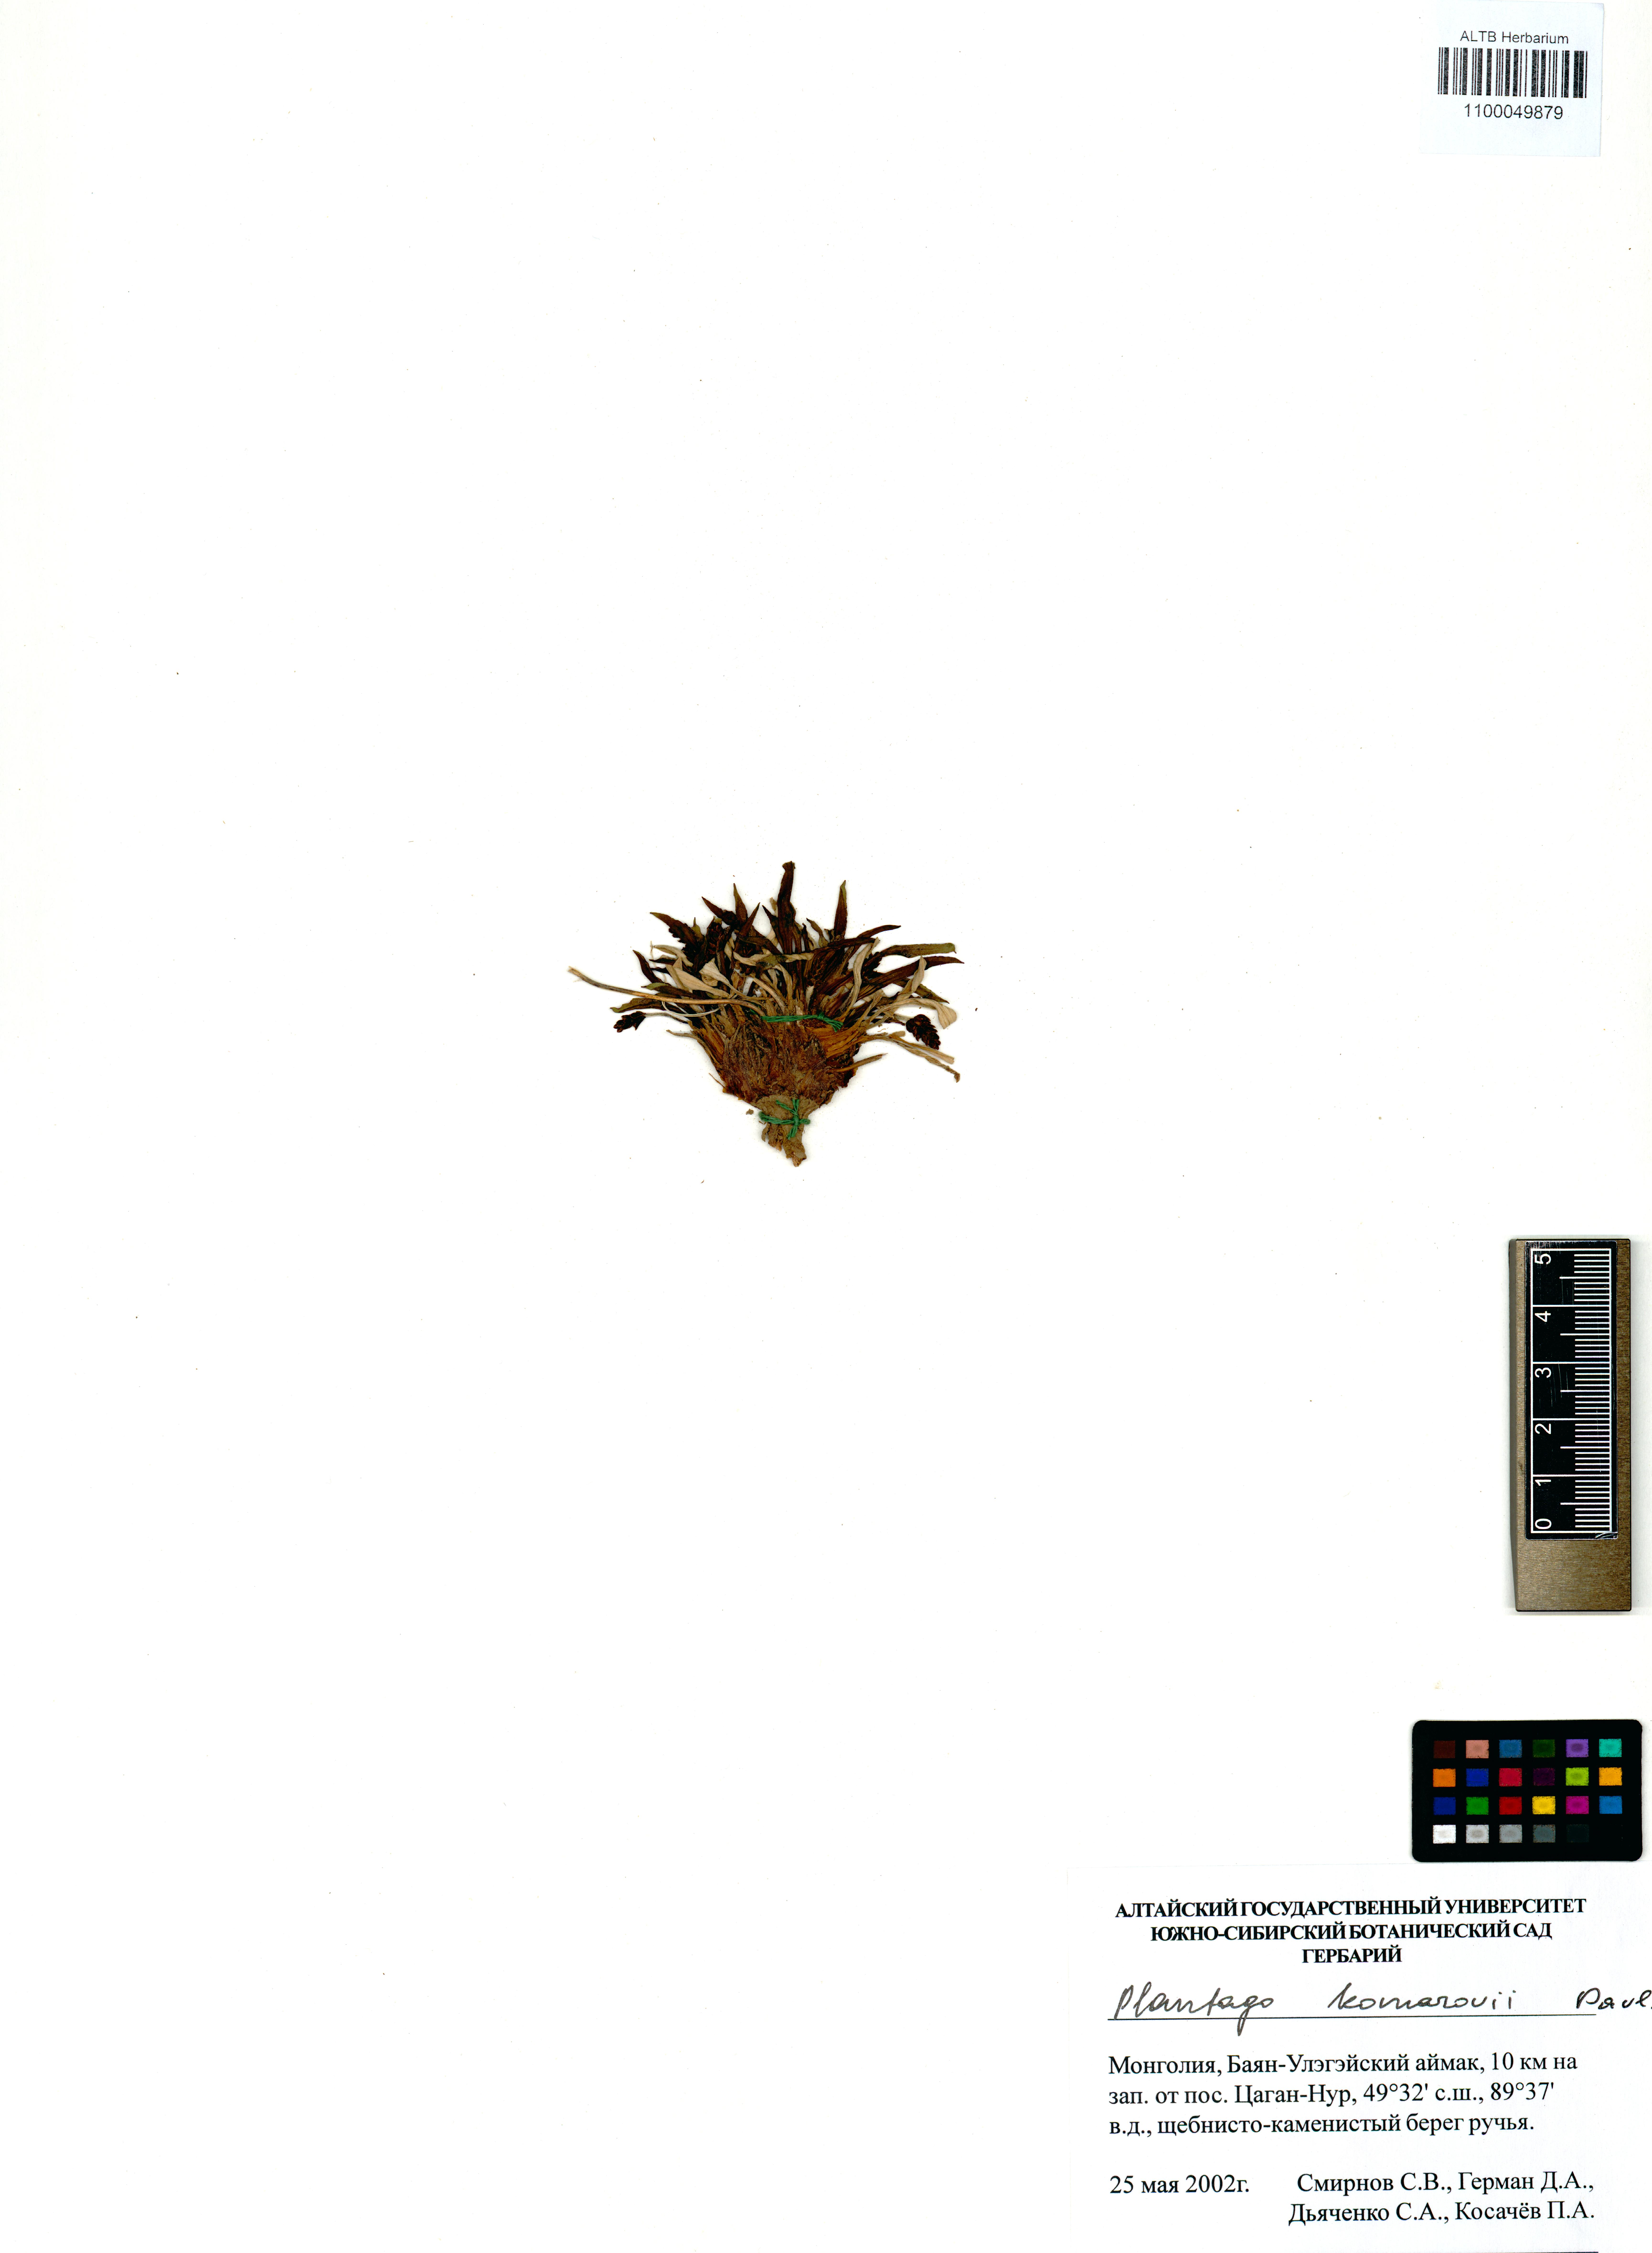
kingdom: Plantae
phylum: Tracheophyta
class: Magnoliopsida
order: Lamiales
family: Plantaginaceae
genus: Plantago
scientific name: Plantago komarovii
